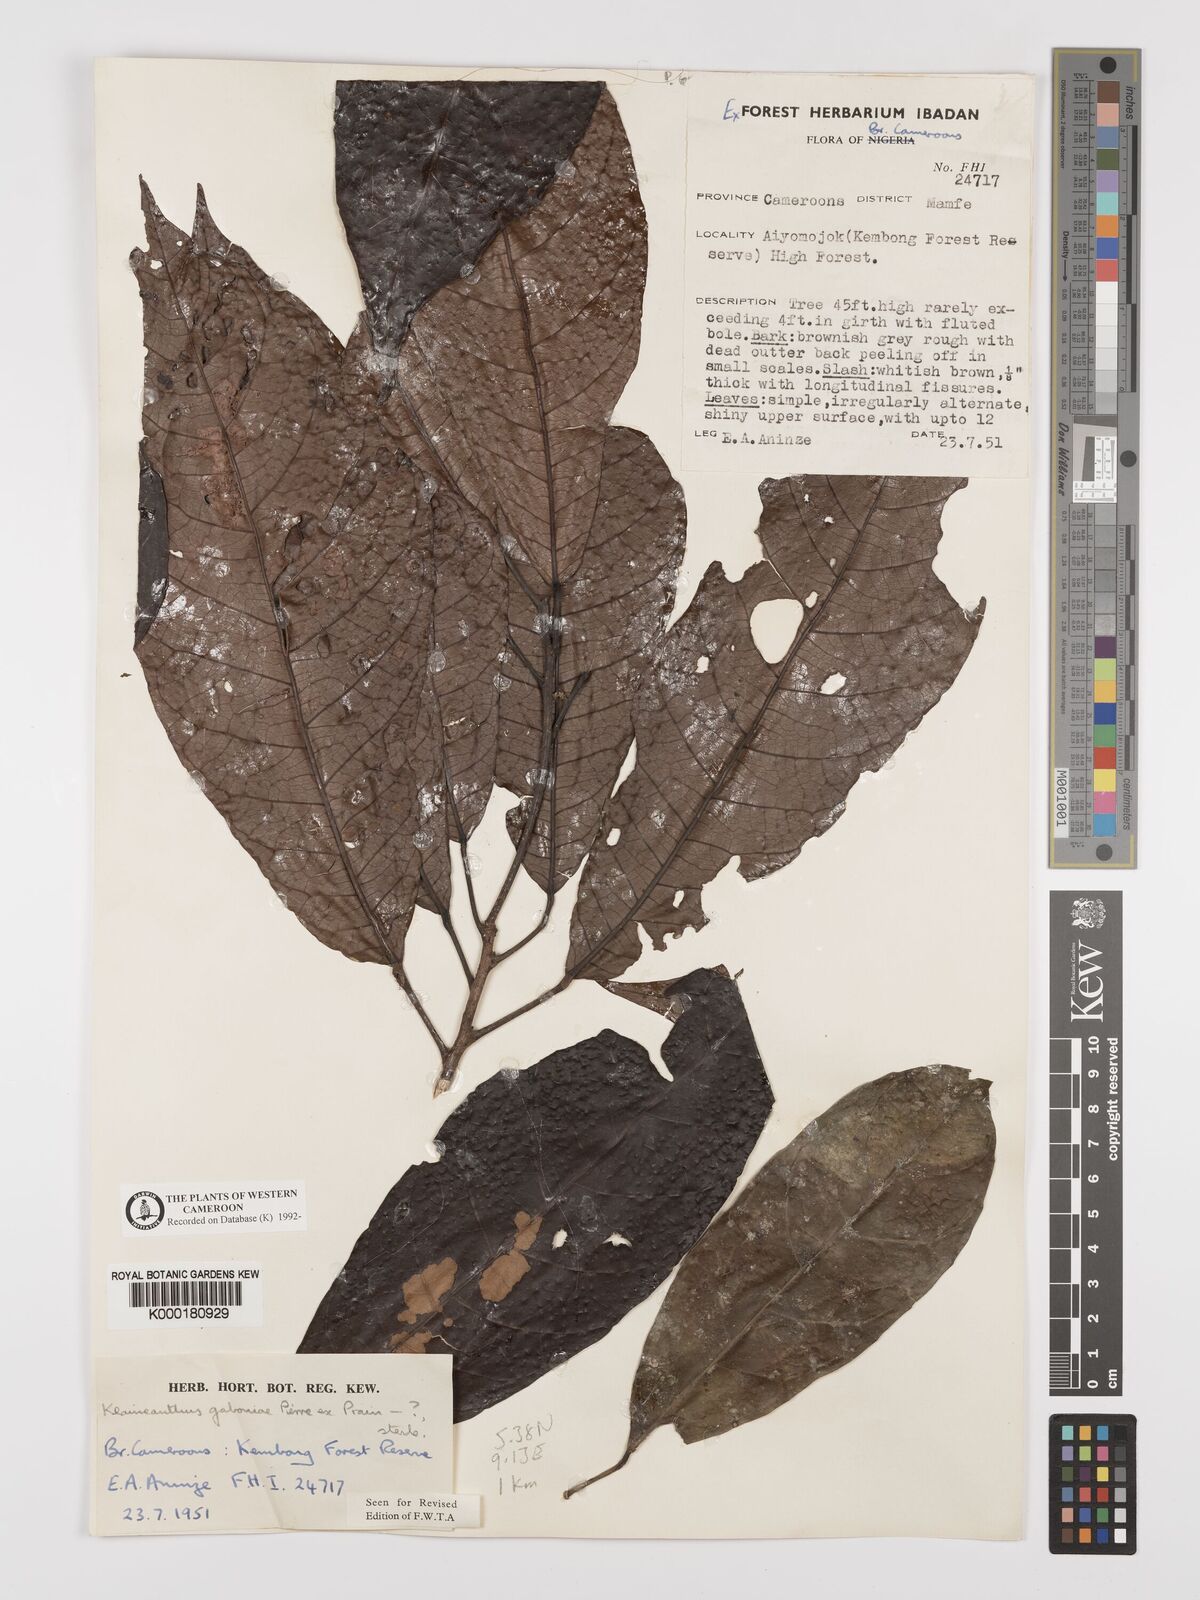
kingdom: Plantae
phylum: Tracheophyta
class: Magnoliopsida
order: Malpighiales
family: Euphorbiaceae
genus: Klaineanthus
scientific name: Klaineanthus
